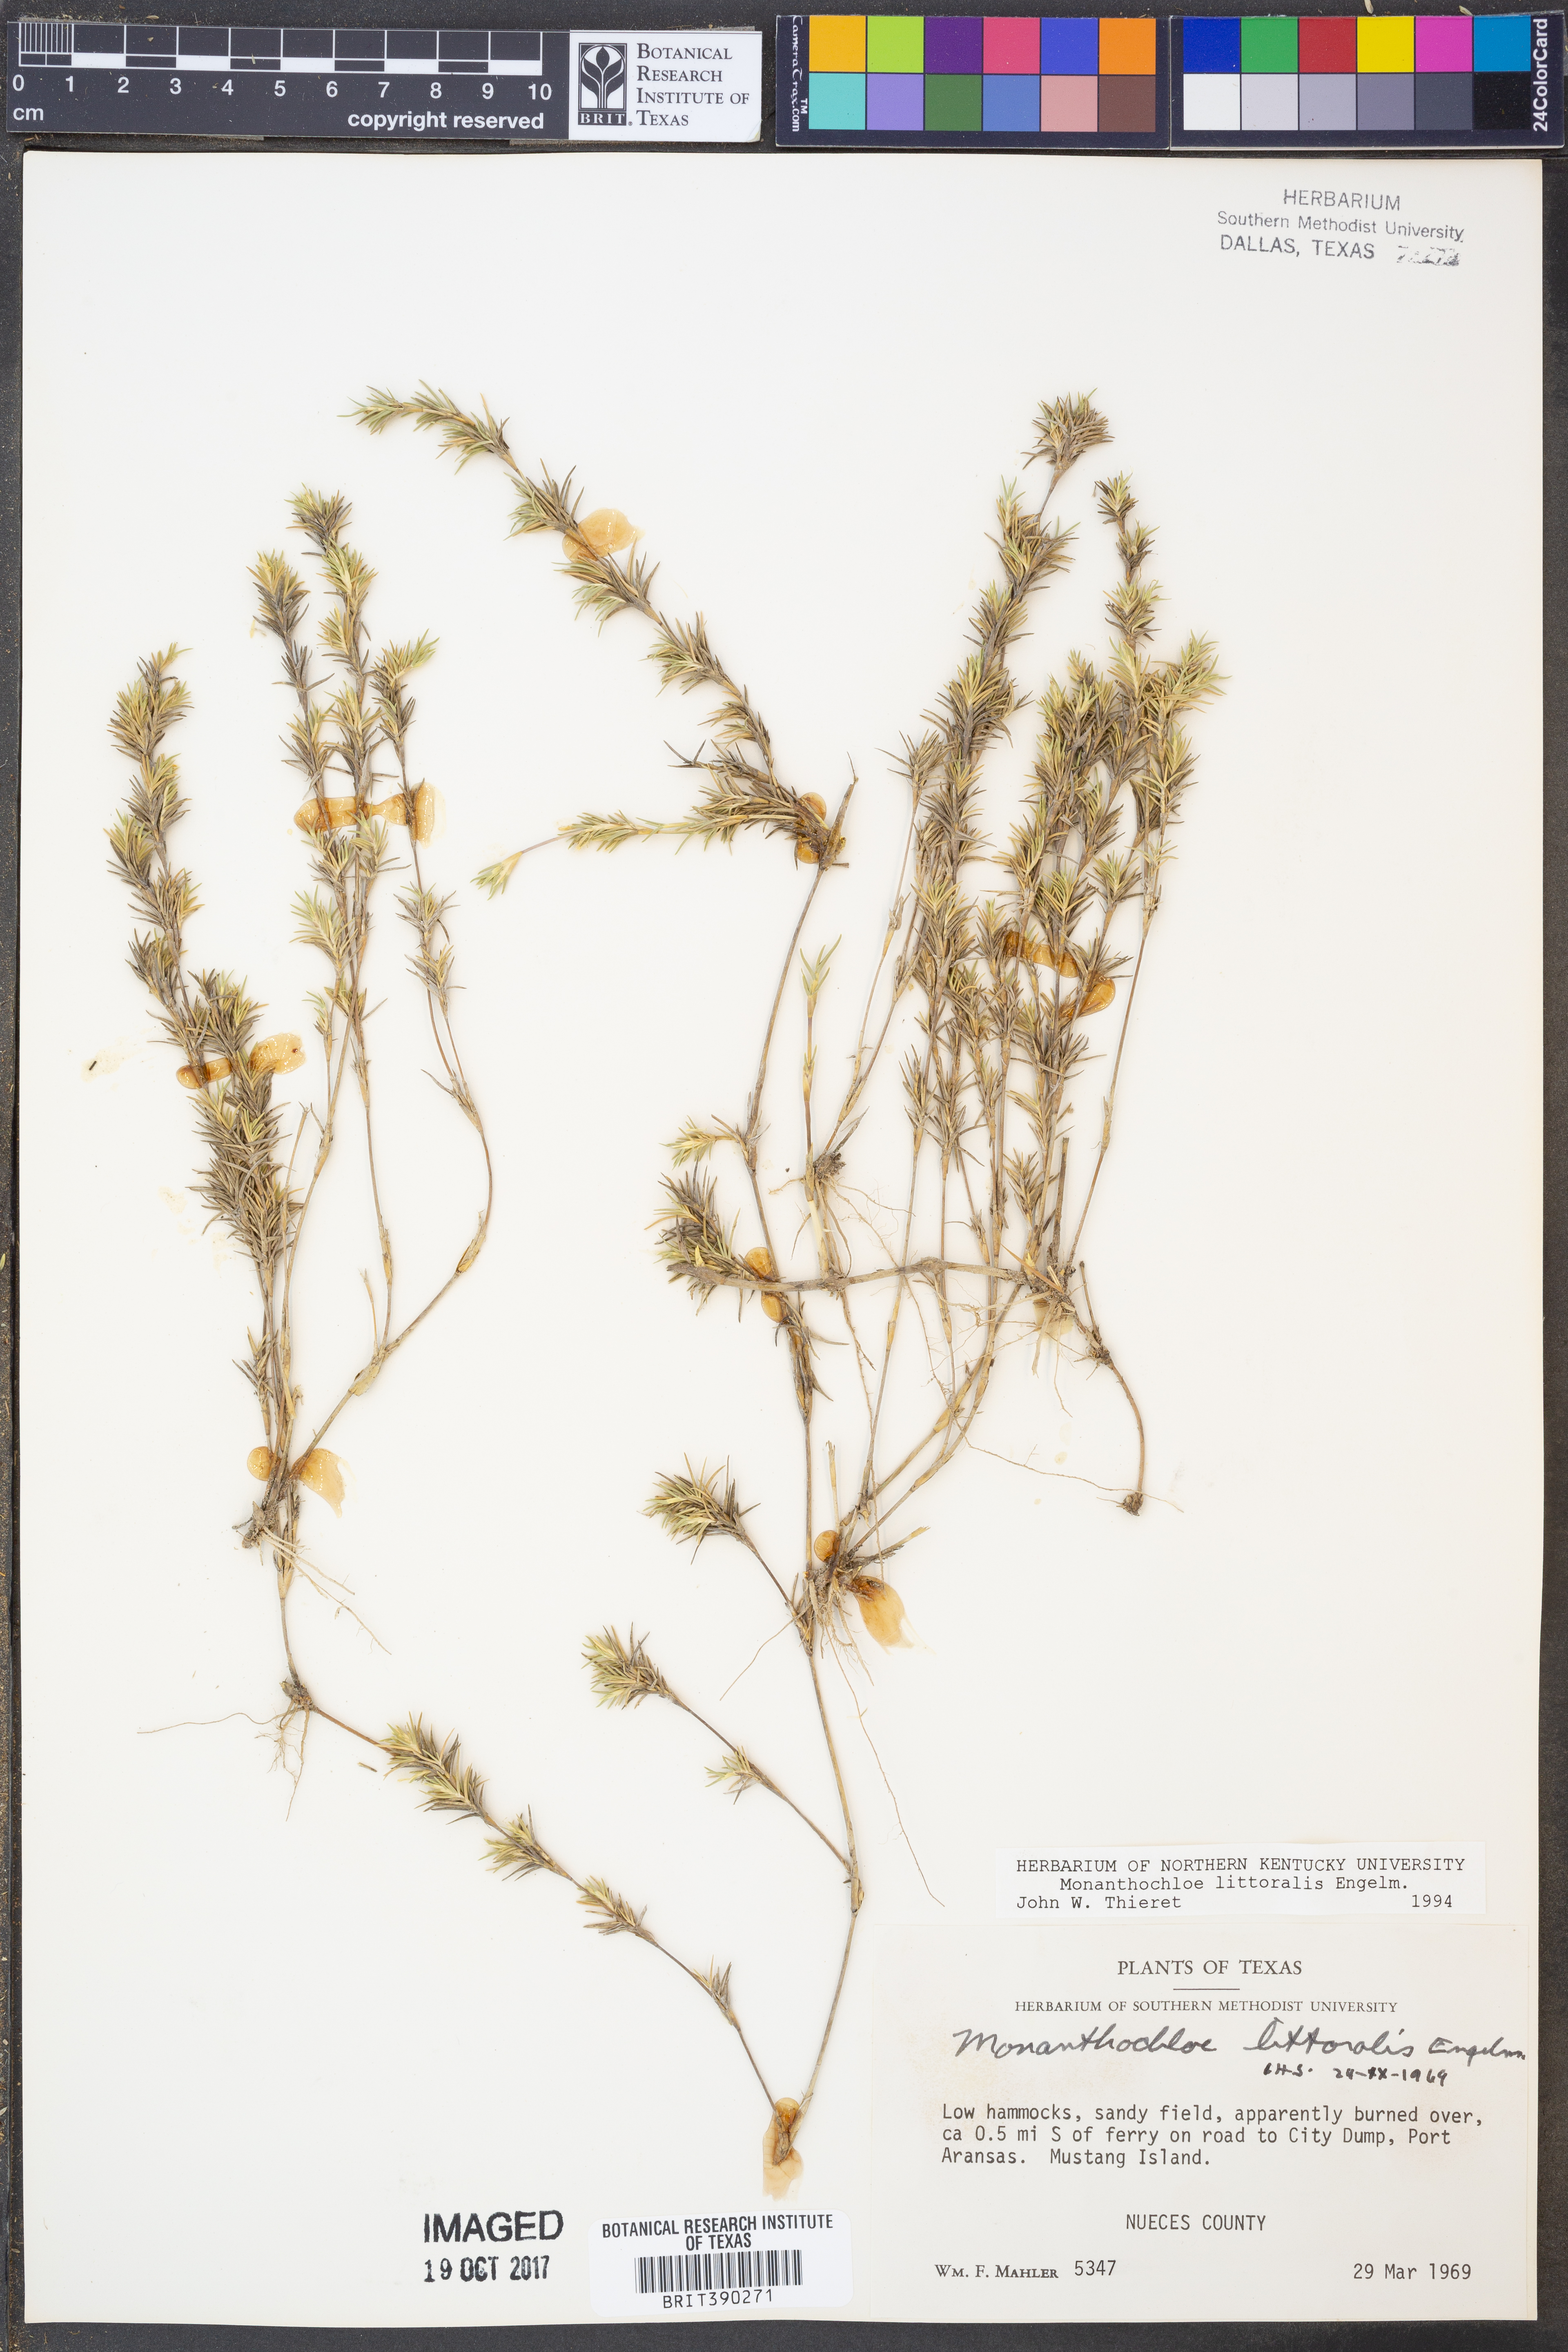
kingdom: Plantae
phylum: Tracheophyta
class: Liliopsida
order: Poales
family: Poaceae
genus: Distichlis
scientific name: Distichlis littoralis
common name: Shore grass
